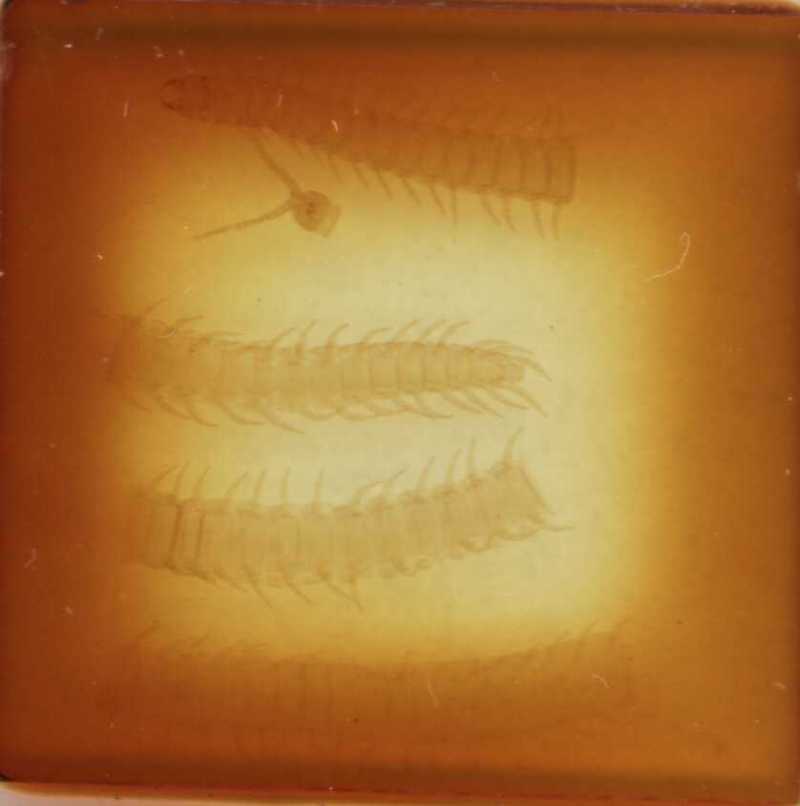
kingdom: Animalia
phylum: Arthropoda
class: Chilopoda
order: Geophilomorpha
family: Aphilodontidae
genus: Aphilodon
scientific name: Aphilodon brevipes
